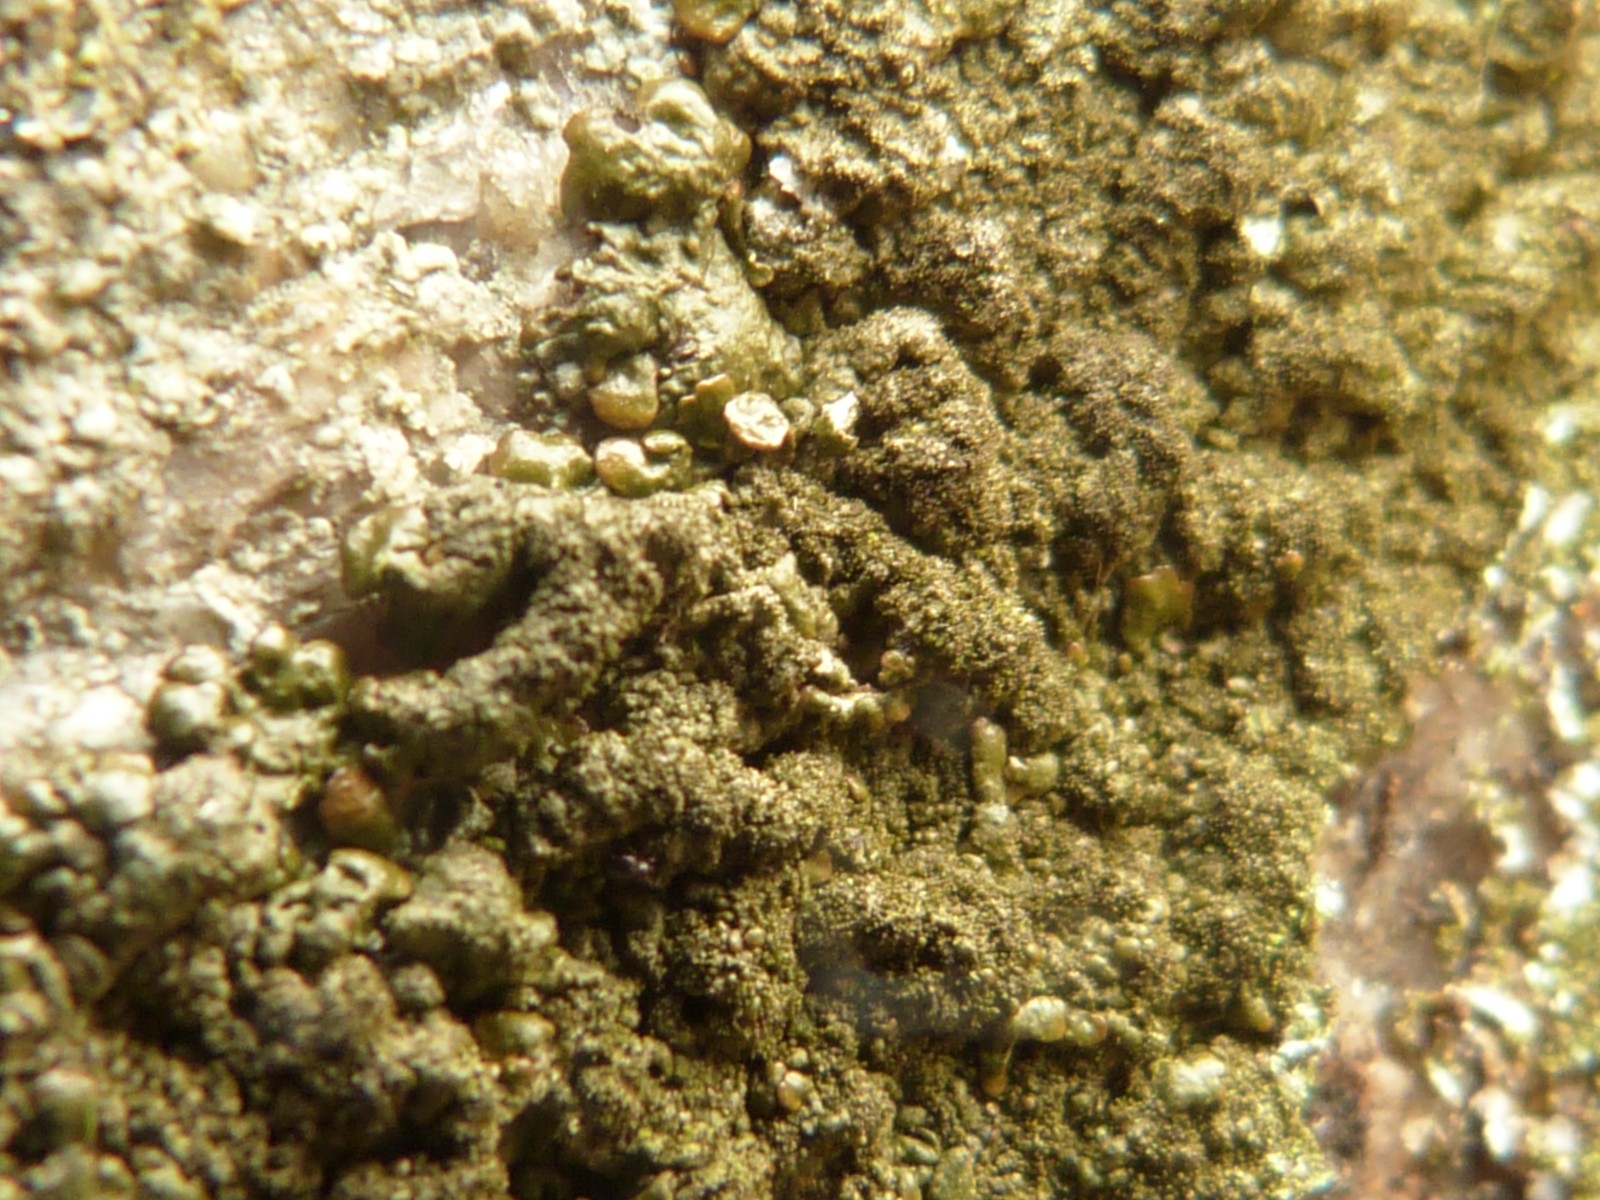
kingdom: Fungi
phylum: Ascomycota
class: Lecanoromycetes
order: Lecanorales
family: Parmeliaceae
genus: Xanthoparmelia
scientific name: Xanthoparmelia verruculifera
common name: småknoppet skållav
